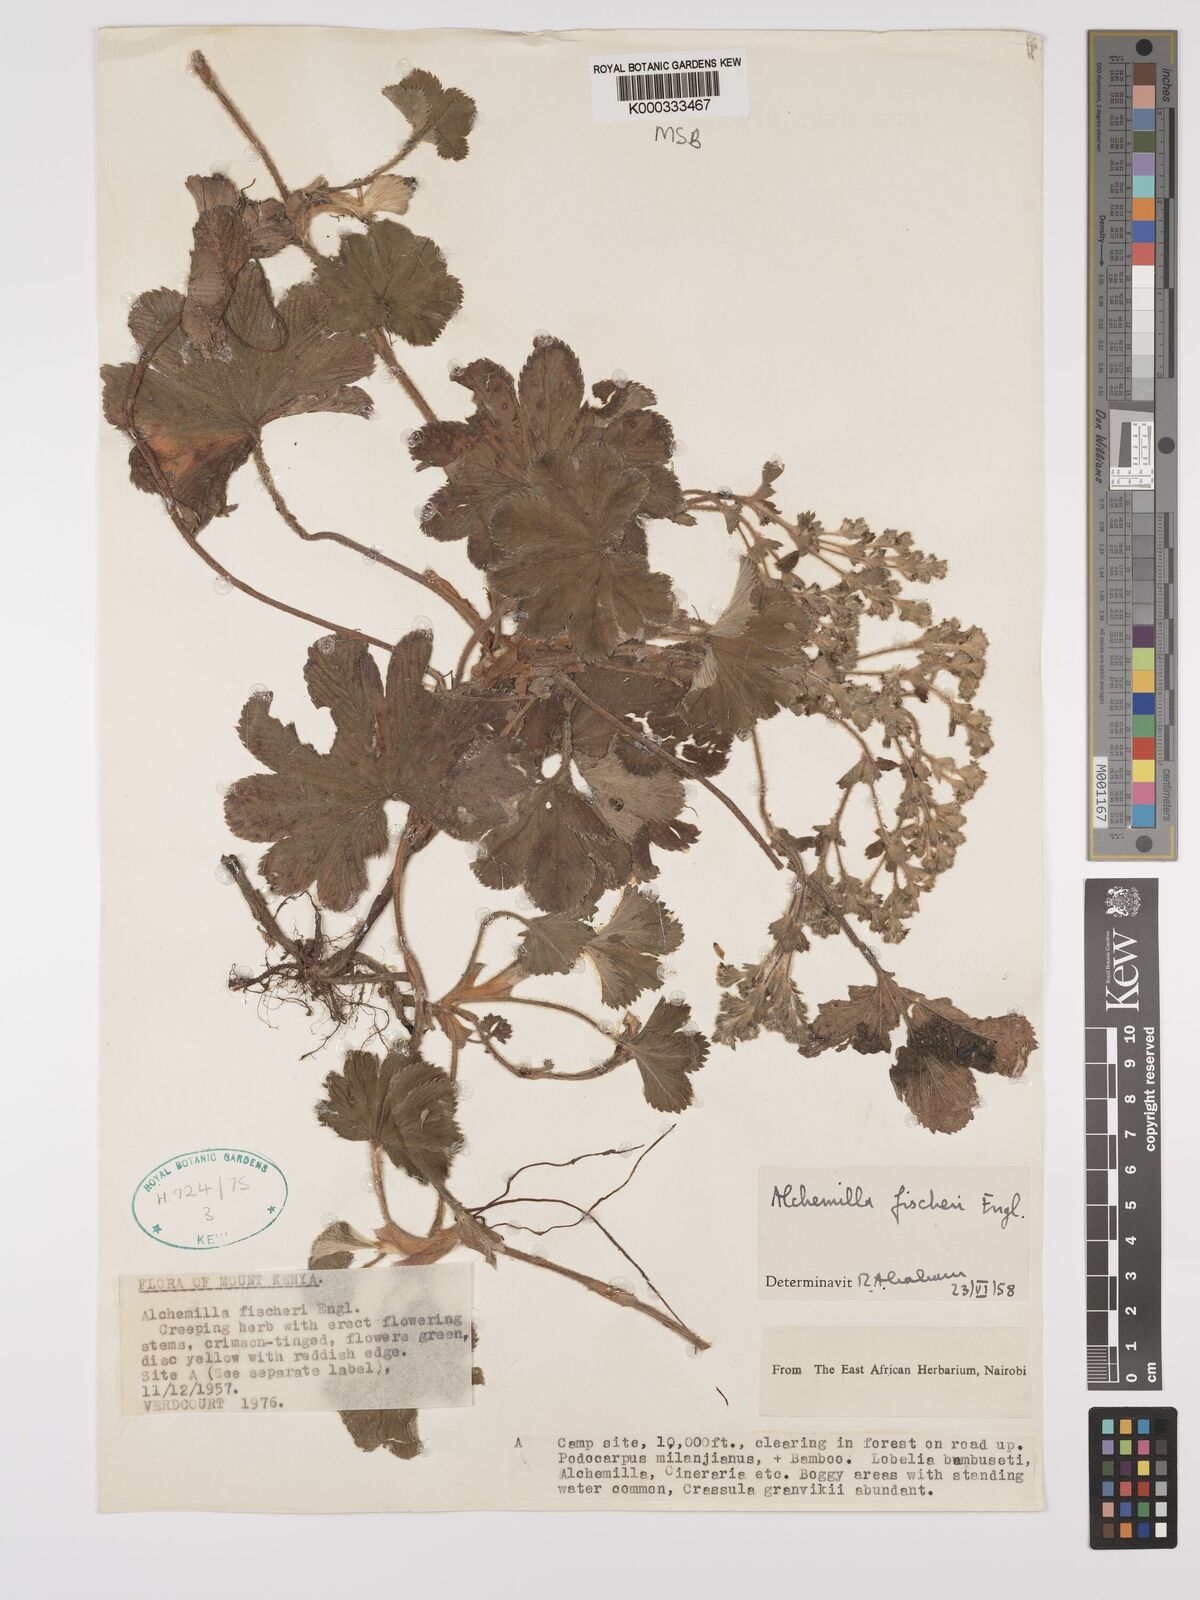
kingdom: Plantae
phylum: Tracheophyta
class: Magnoliopsida
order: Rosales
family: Rosaceae
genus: Alchemilla
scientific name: Alchemilla fischeri
